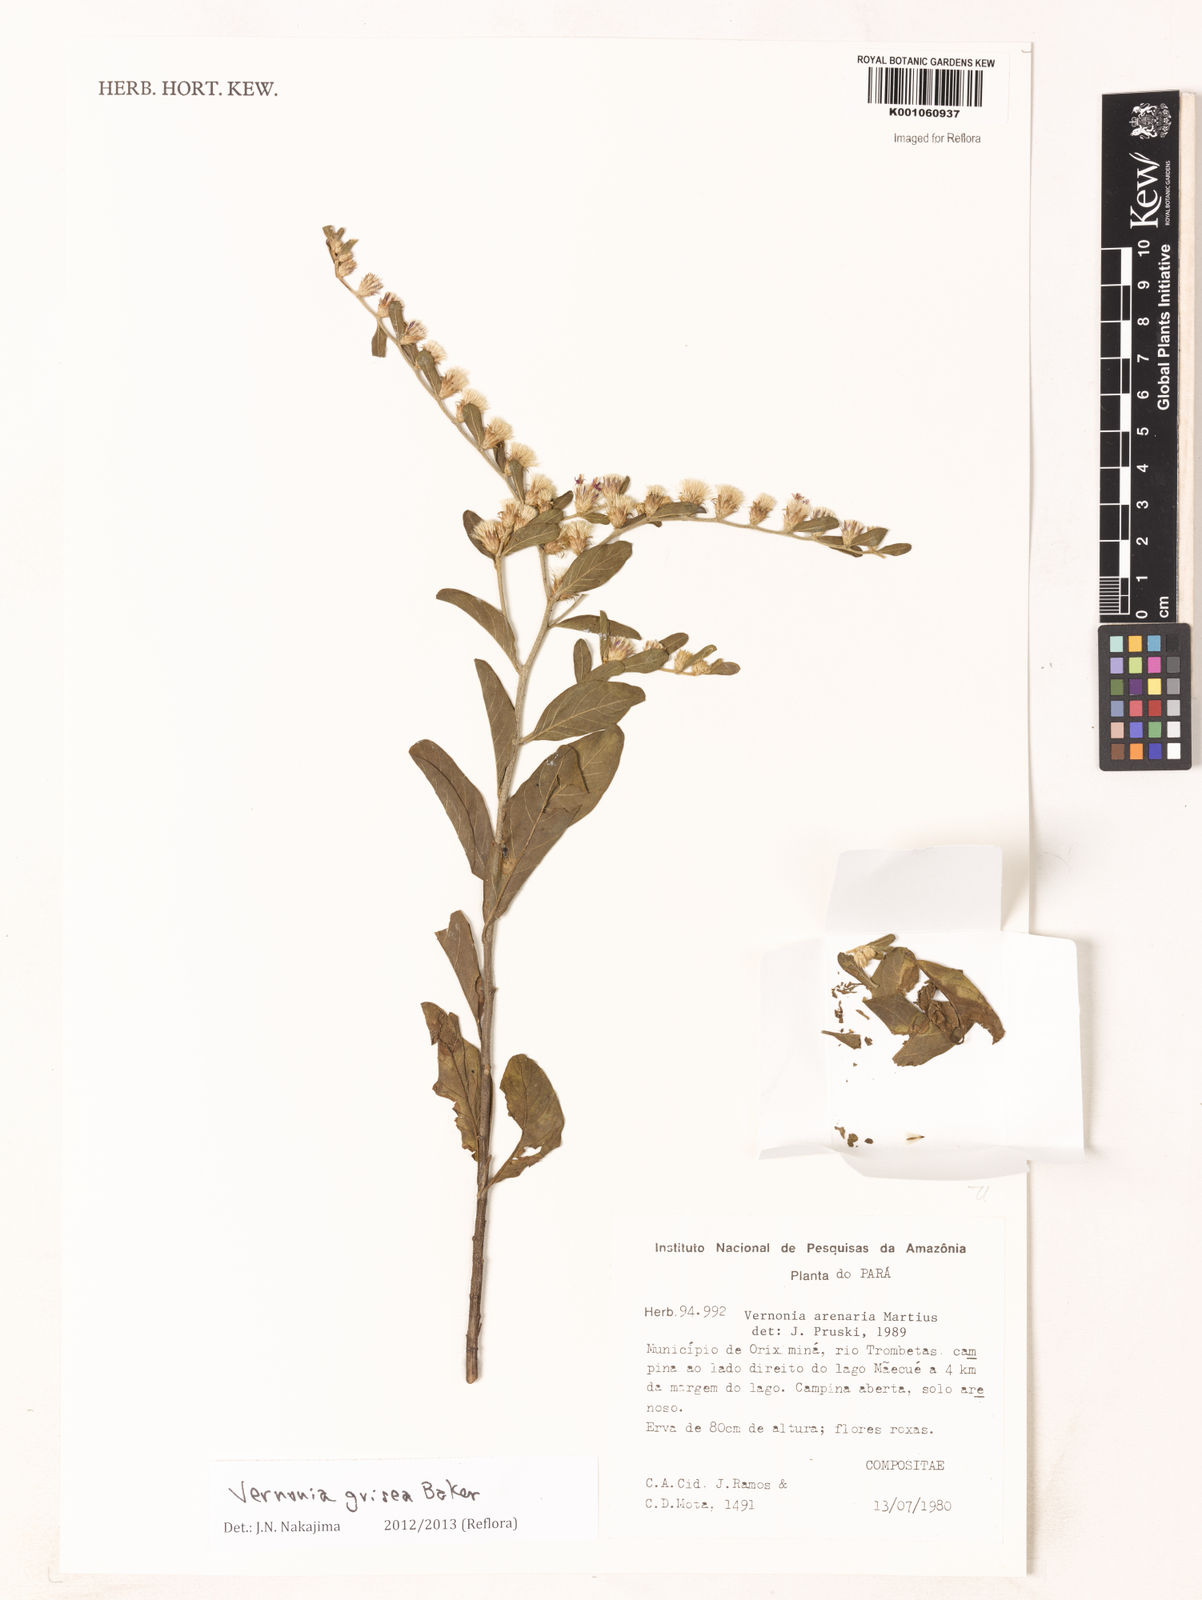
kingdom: Plantae
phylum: Tracheophyta
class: Magnoliopsida
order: Asterales
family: Asteraceae
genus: Lepidaploa
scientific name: Lepidaploa grisea
